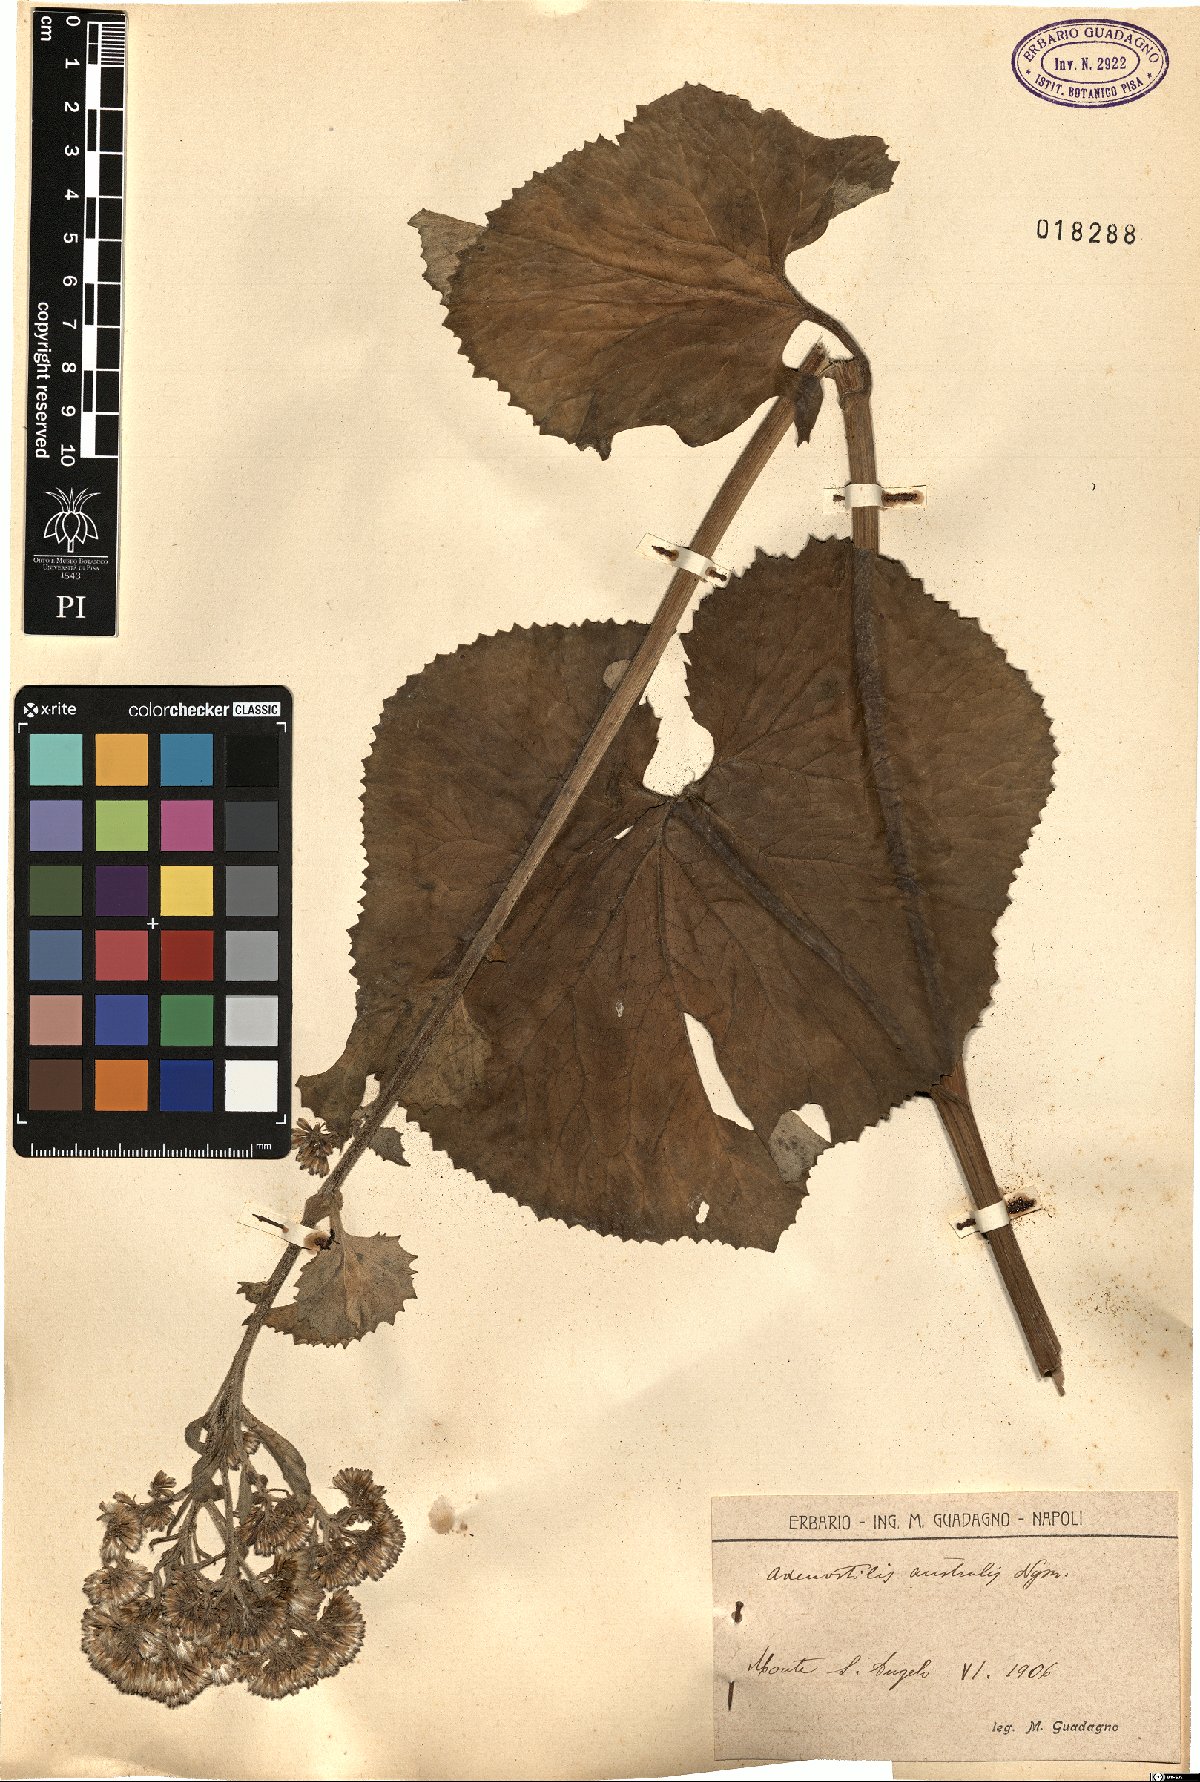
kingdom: Plantae
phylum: Tracheophyta
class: Magnoliopsida
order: Asterales
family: Asteraceae
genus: Adenostyles
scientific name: Adenostyles australis
